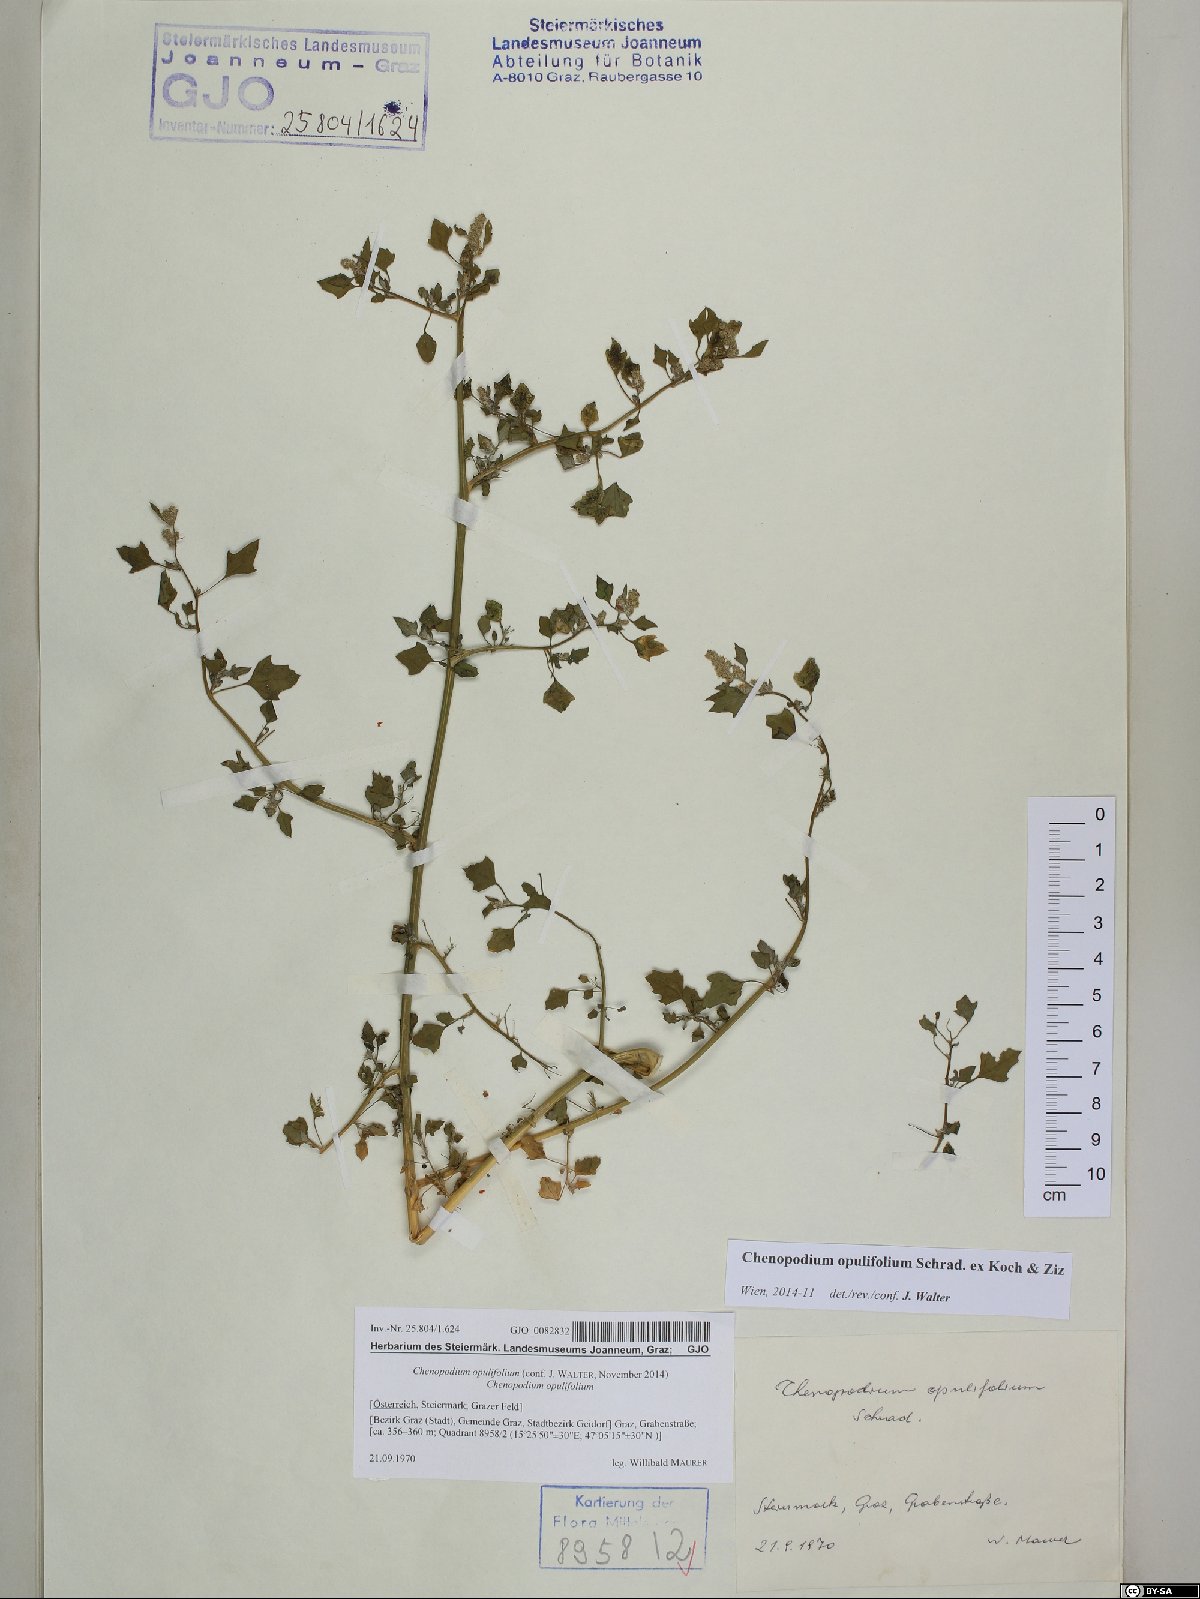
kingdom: Plantae
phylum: Tracheophyta
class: Magnoliopsida
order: Caryophyllales
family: Amaranthaceae
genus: Chenopodium
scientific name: Chenopodium opulifolium
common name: Grey goosefoot
